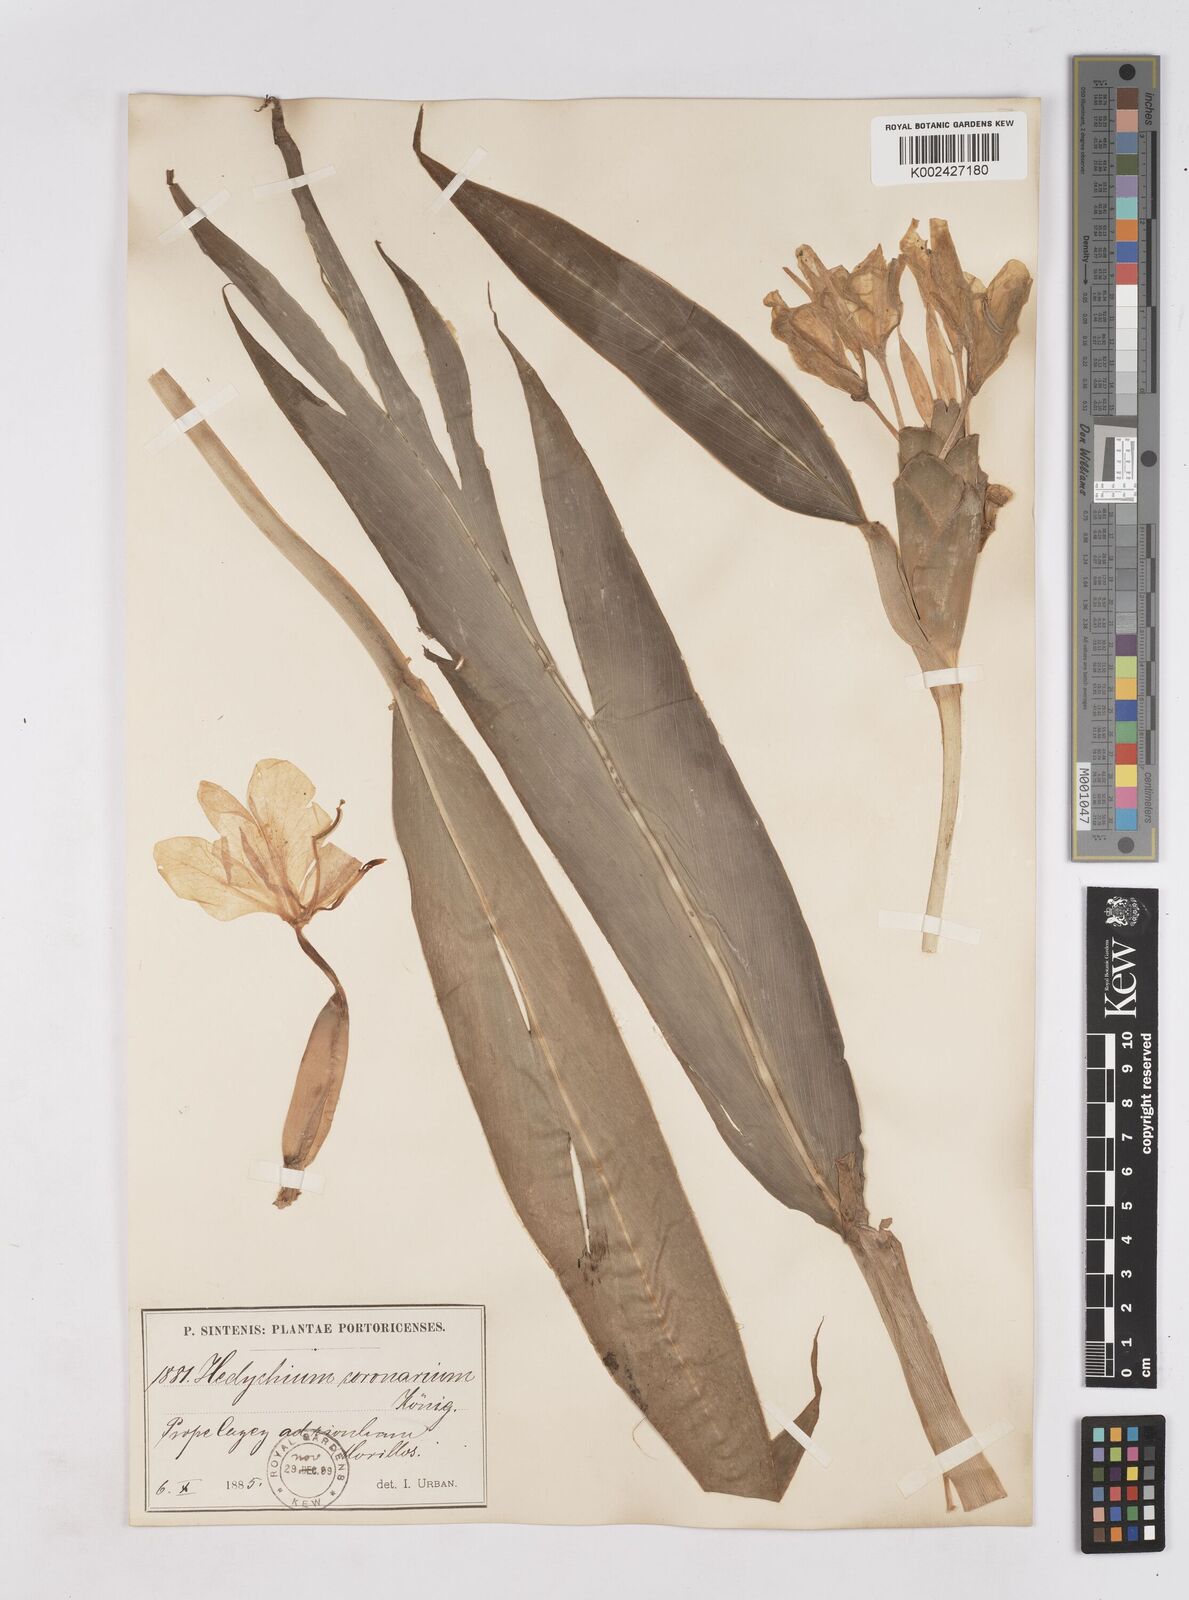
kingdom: Plantae
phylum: Tracheophyta
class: Liliopsida
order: Zingiberales
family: Zingiberaceae
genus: Hedychium
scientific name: Hedychium coronarium
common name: White garland-lily
